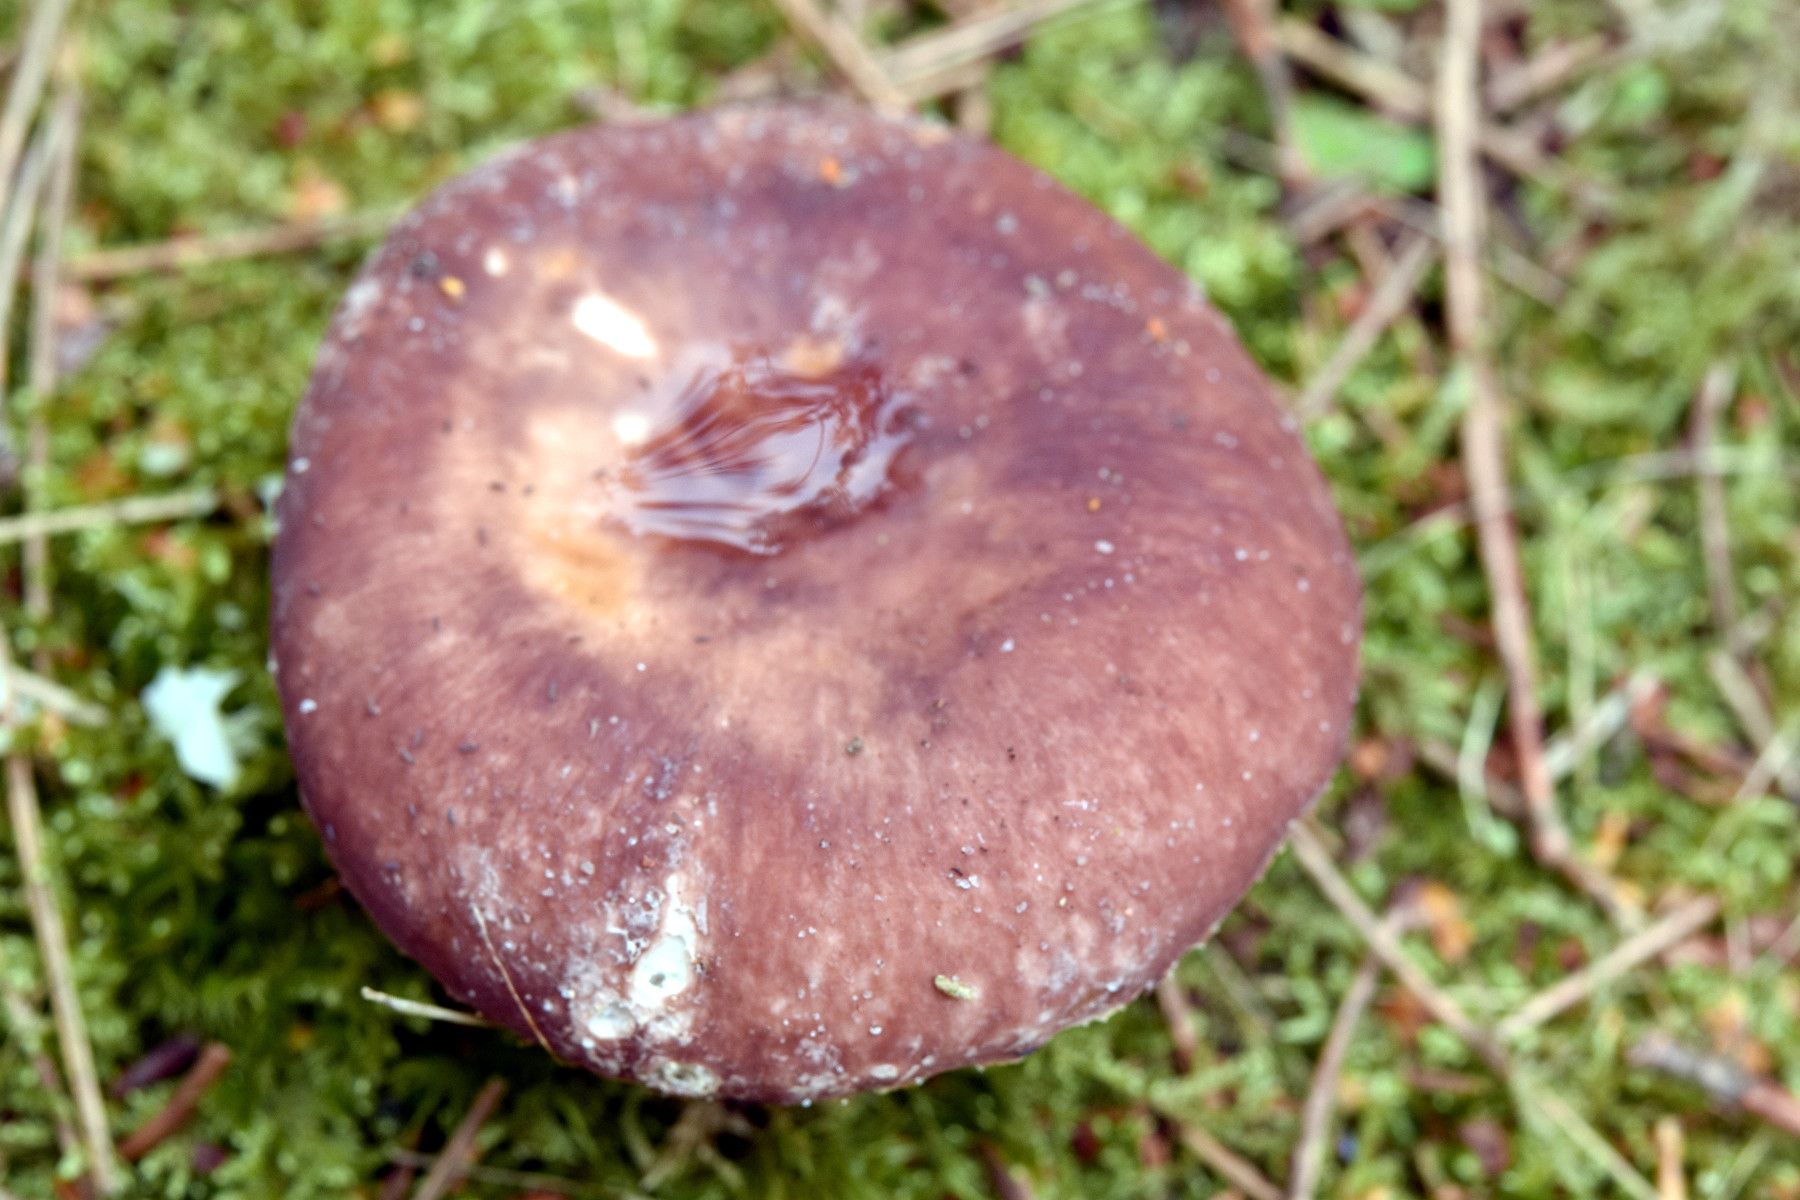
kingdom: Fungi
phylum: Basidiomycota
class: Agaricomycetes
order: Russulales
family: Russulaceae
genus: Russula
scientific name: Russula vesca
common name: spiselig skørhat
